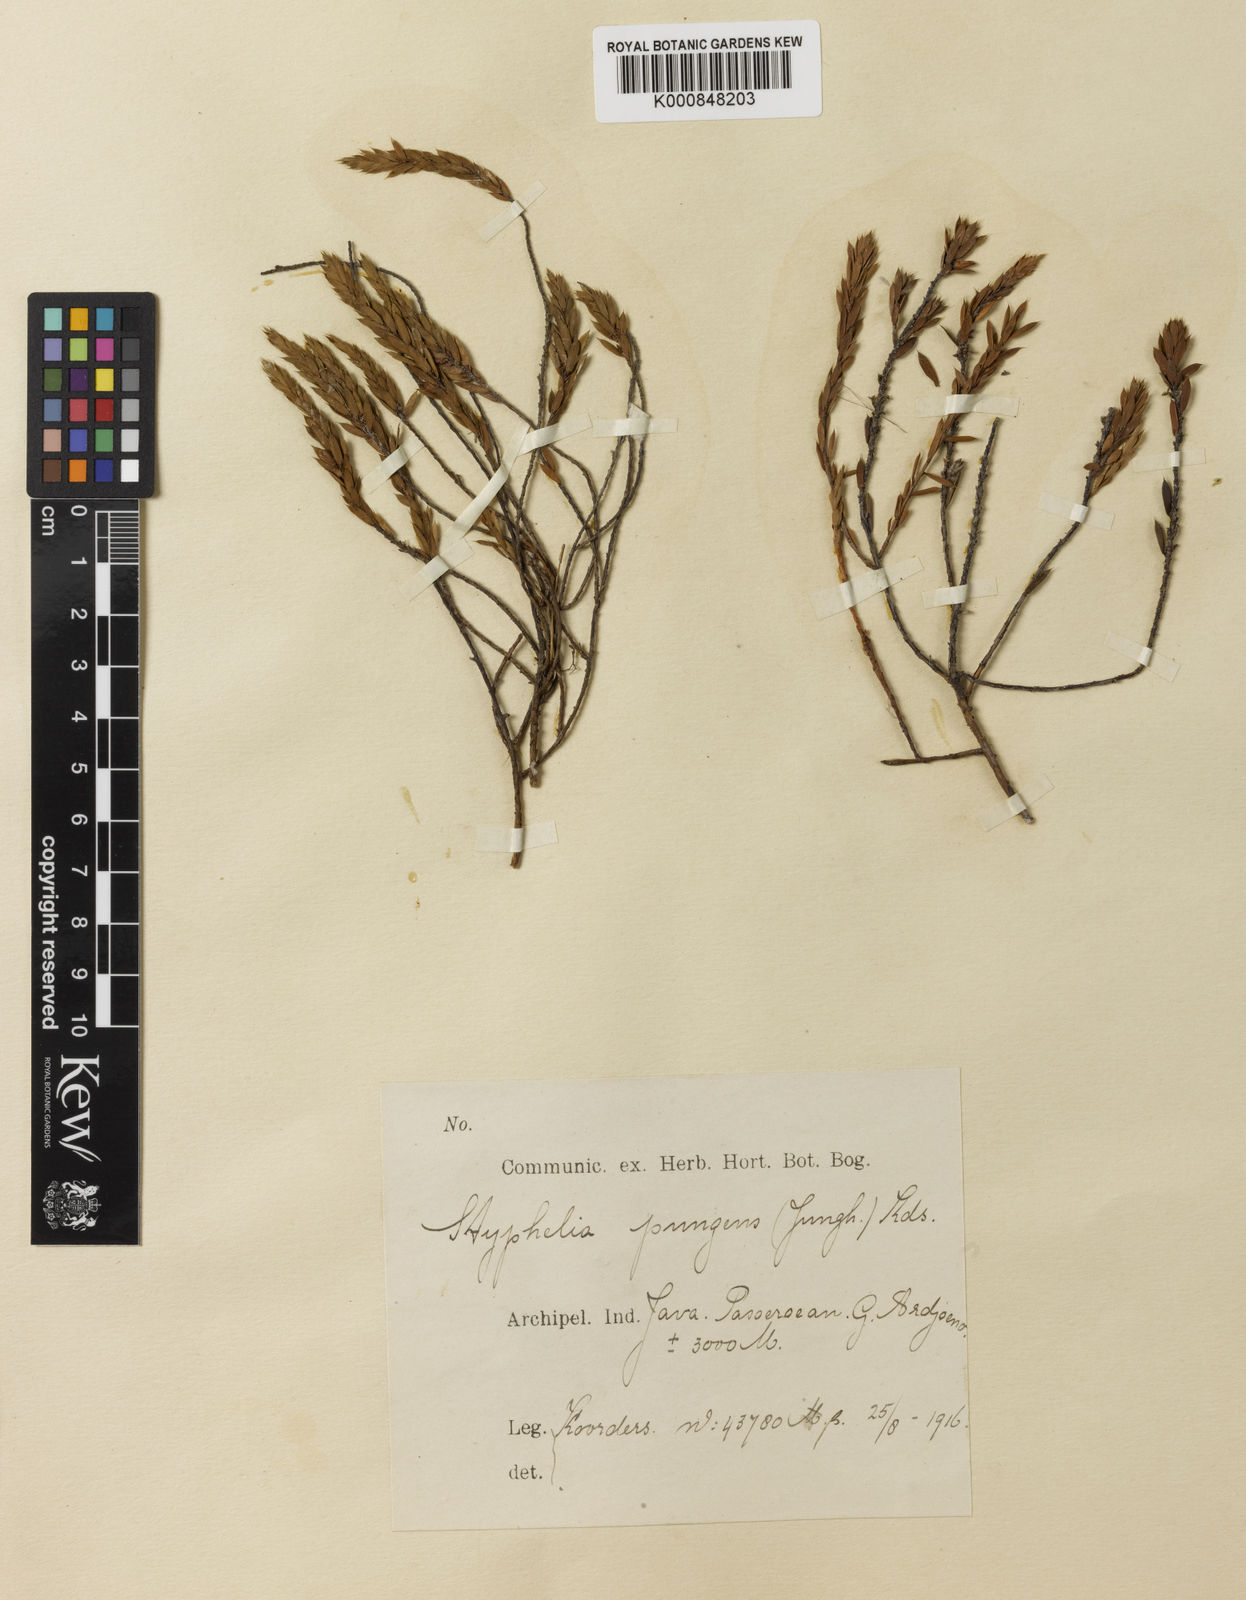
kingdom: Plantae
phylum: Tracheophyta
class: Magnoliopsida
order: Ericales
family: Ericaceae
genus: Styphelia
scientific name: Styphelia
